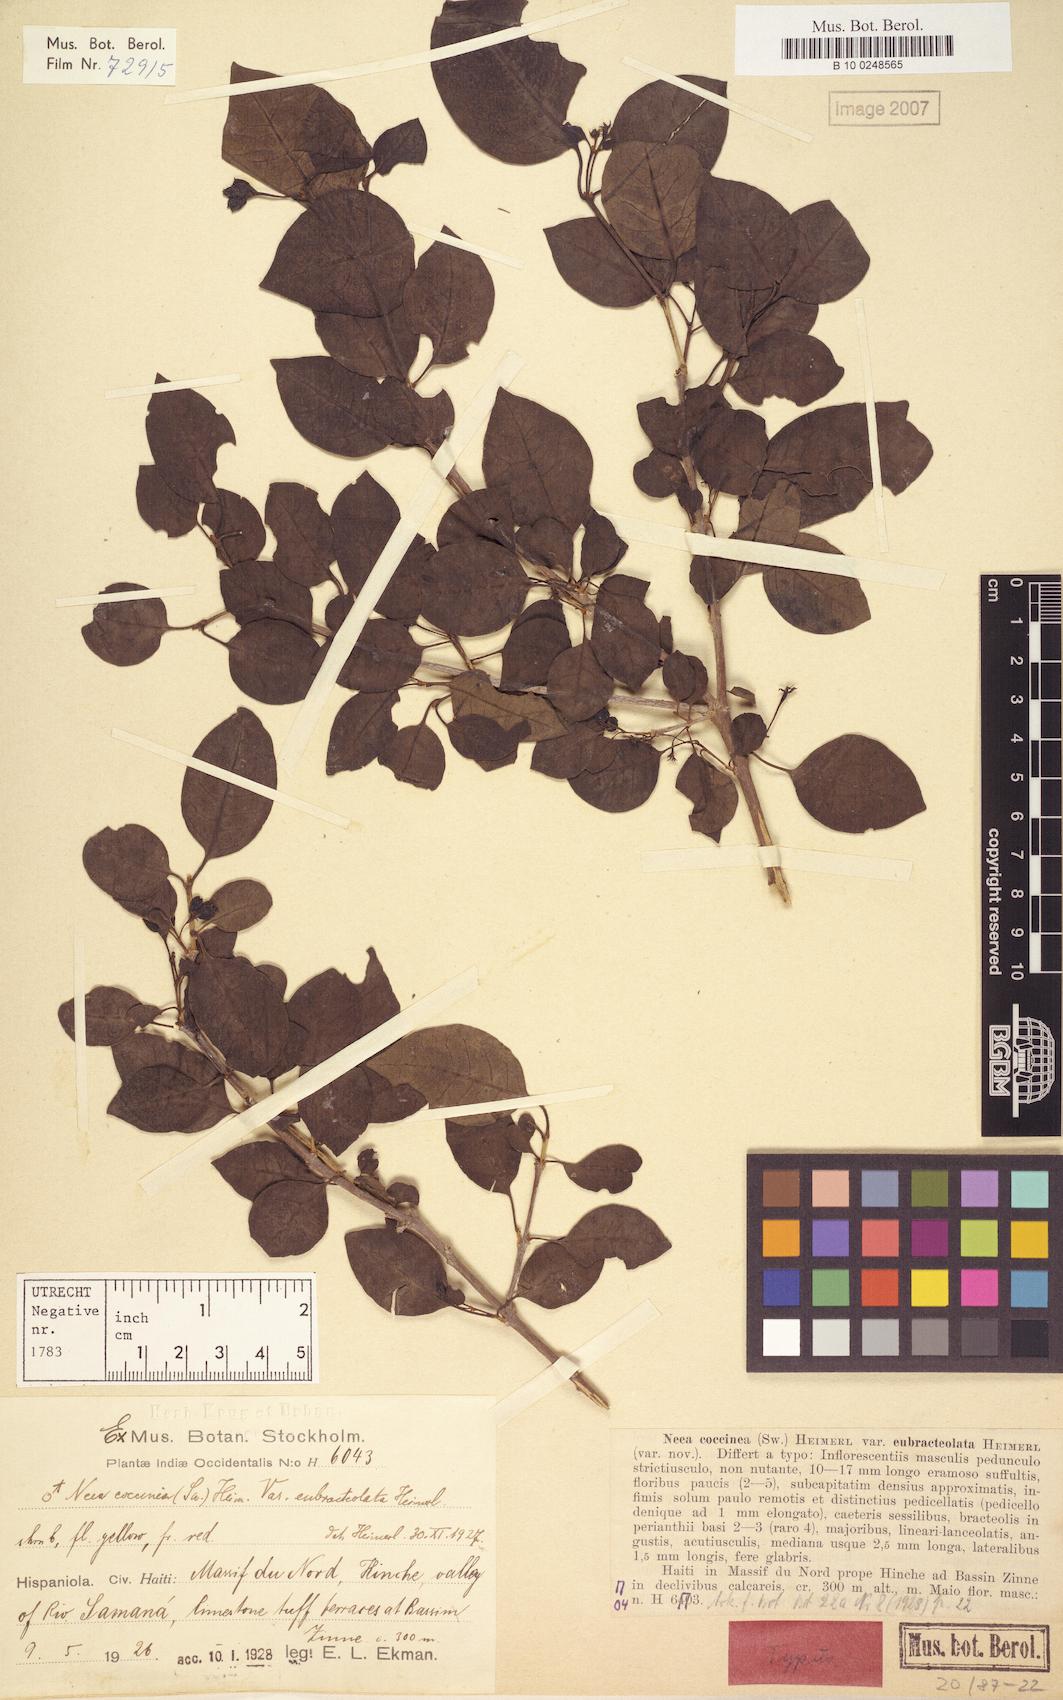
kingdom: Plantae
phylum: Tracheophyta
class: Magnoliopsida
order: Caryophyllales
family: Nyctaginaceae
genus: Neea
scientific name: Neea coccinea
